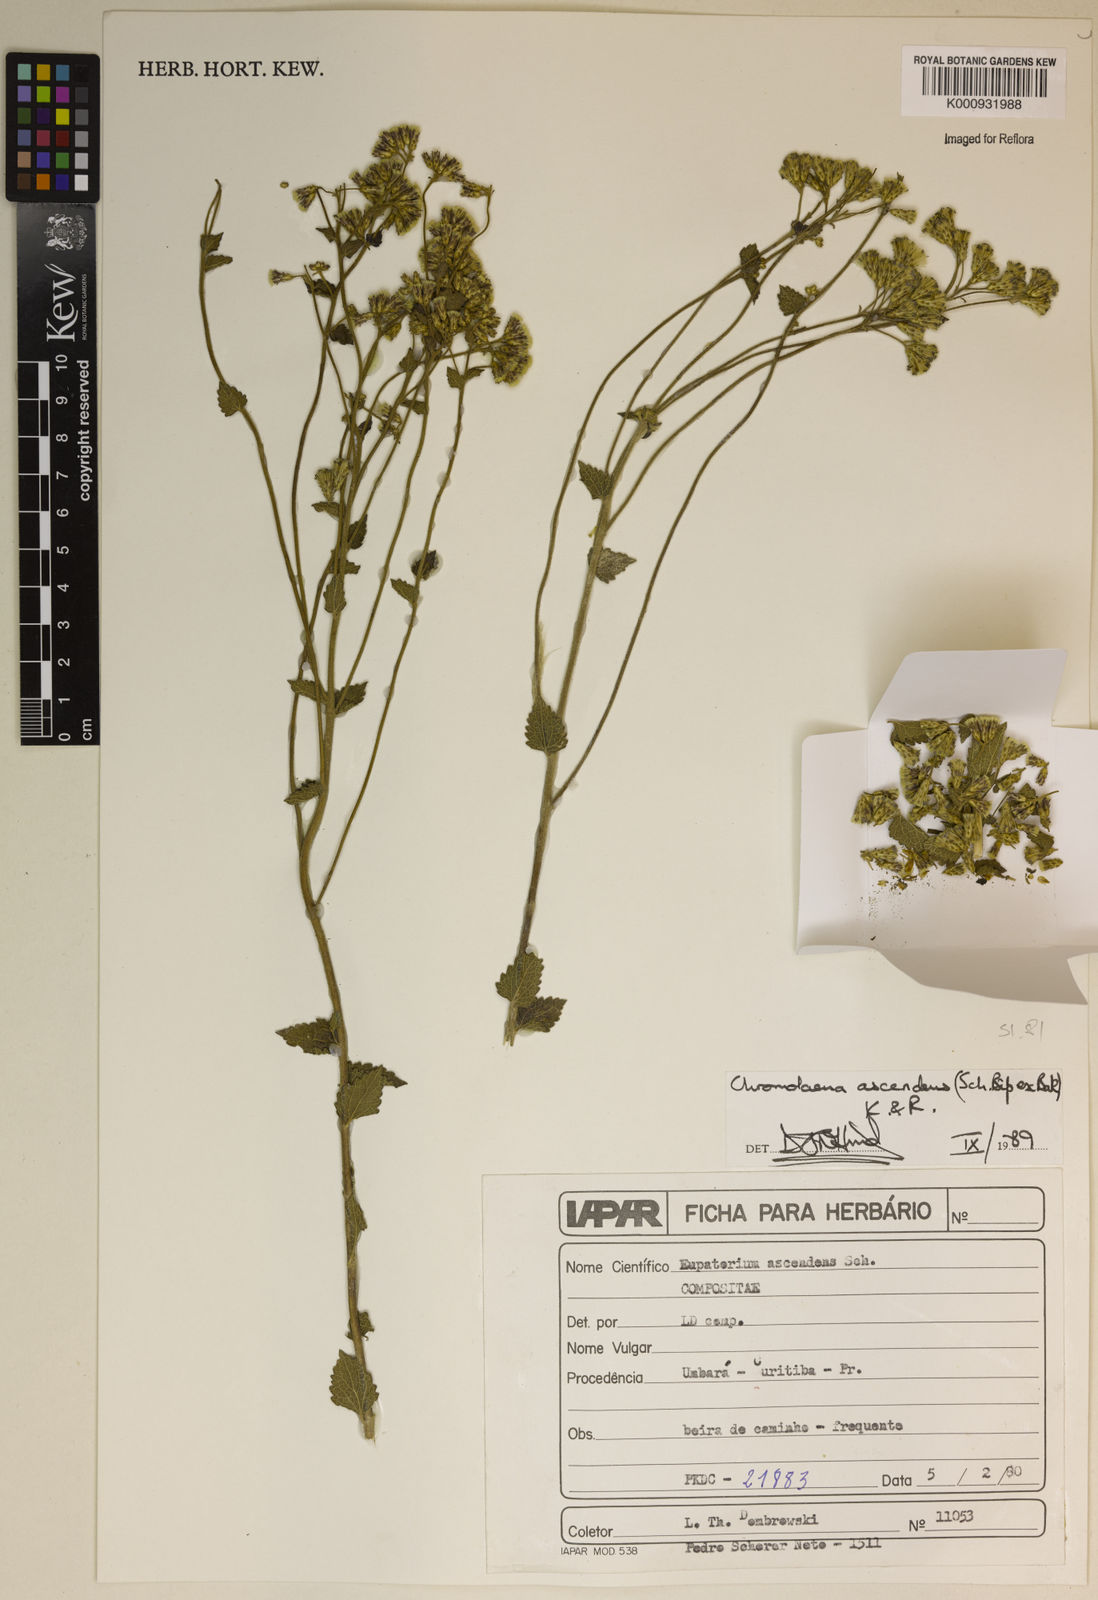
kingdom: Plantae
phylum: Tracheophyta
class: Magnoliopsida
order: Asterales
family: Asteraceae
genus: Chromolaena
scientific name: Chromolaena ascendens
